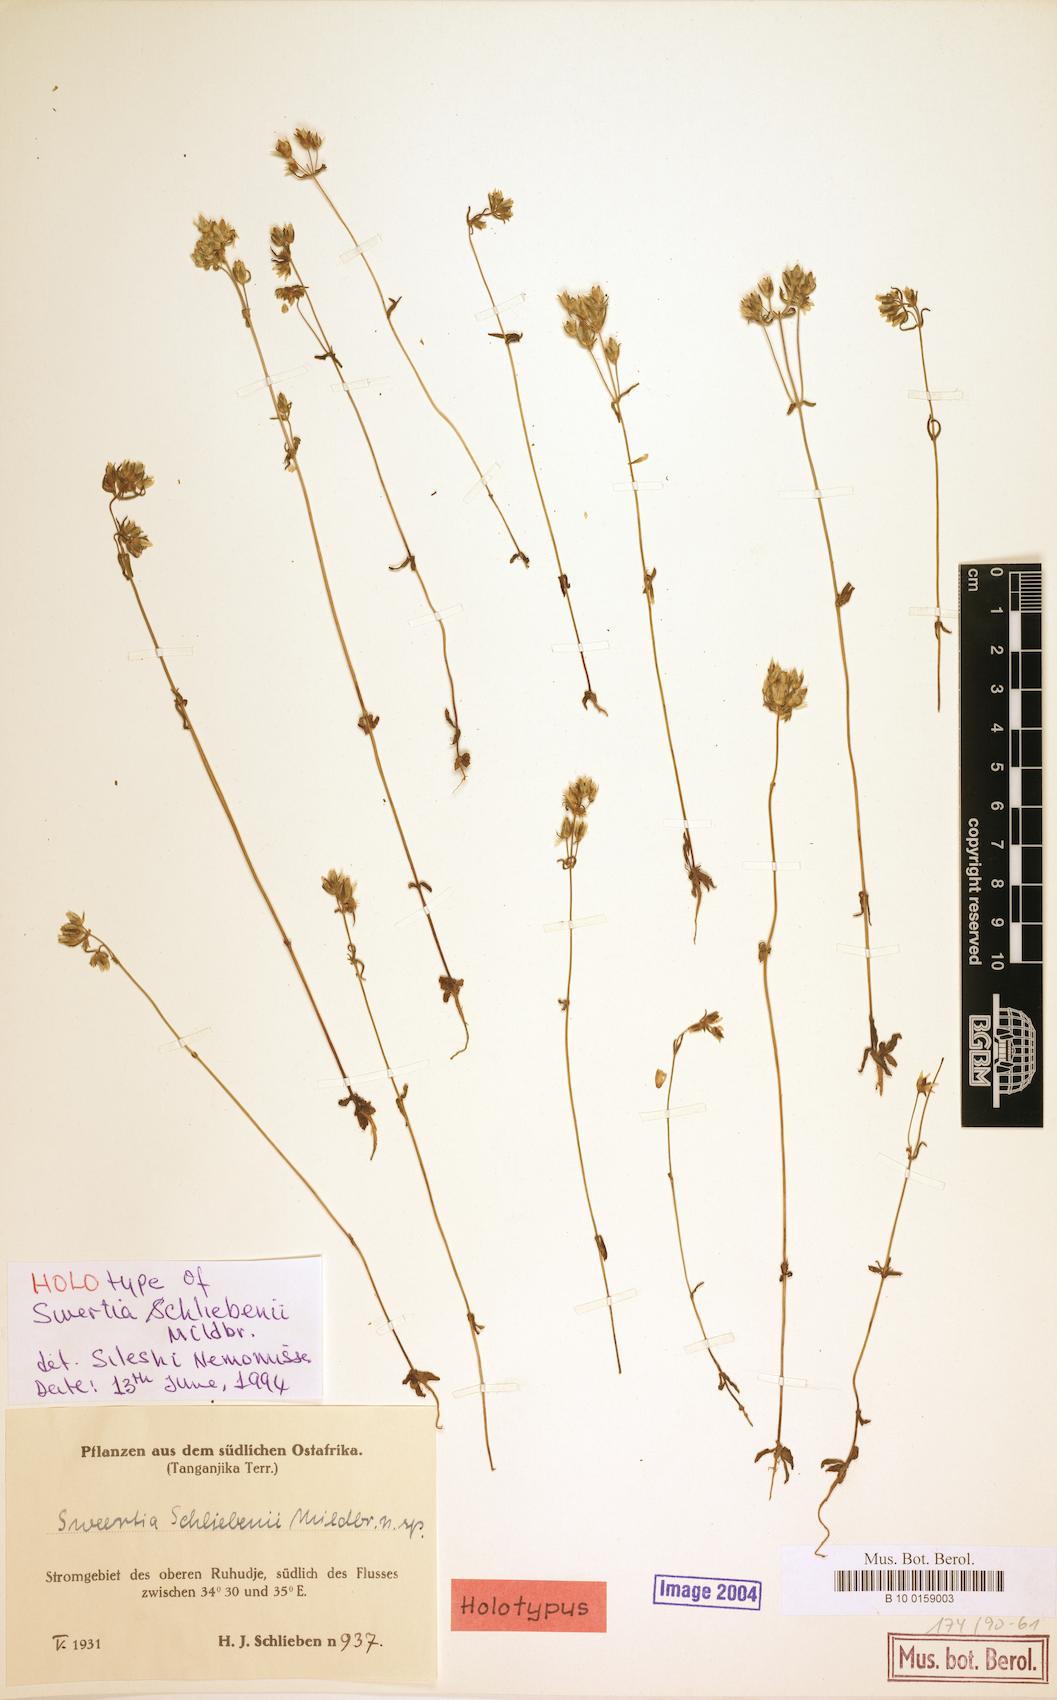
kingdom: Plantae
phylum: Tracheophyta
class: Magnoliopsida
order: Gentianales
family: Gentianaceae
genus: Swertia
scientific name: Swertia schliebenii
